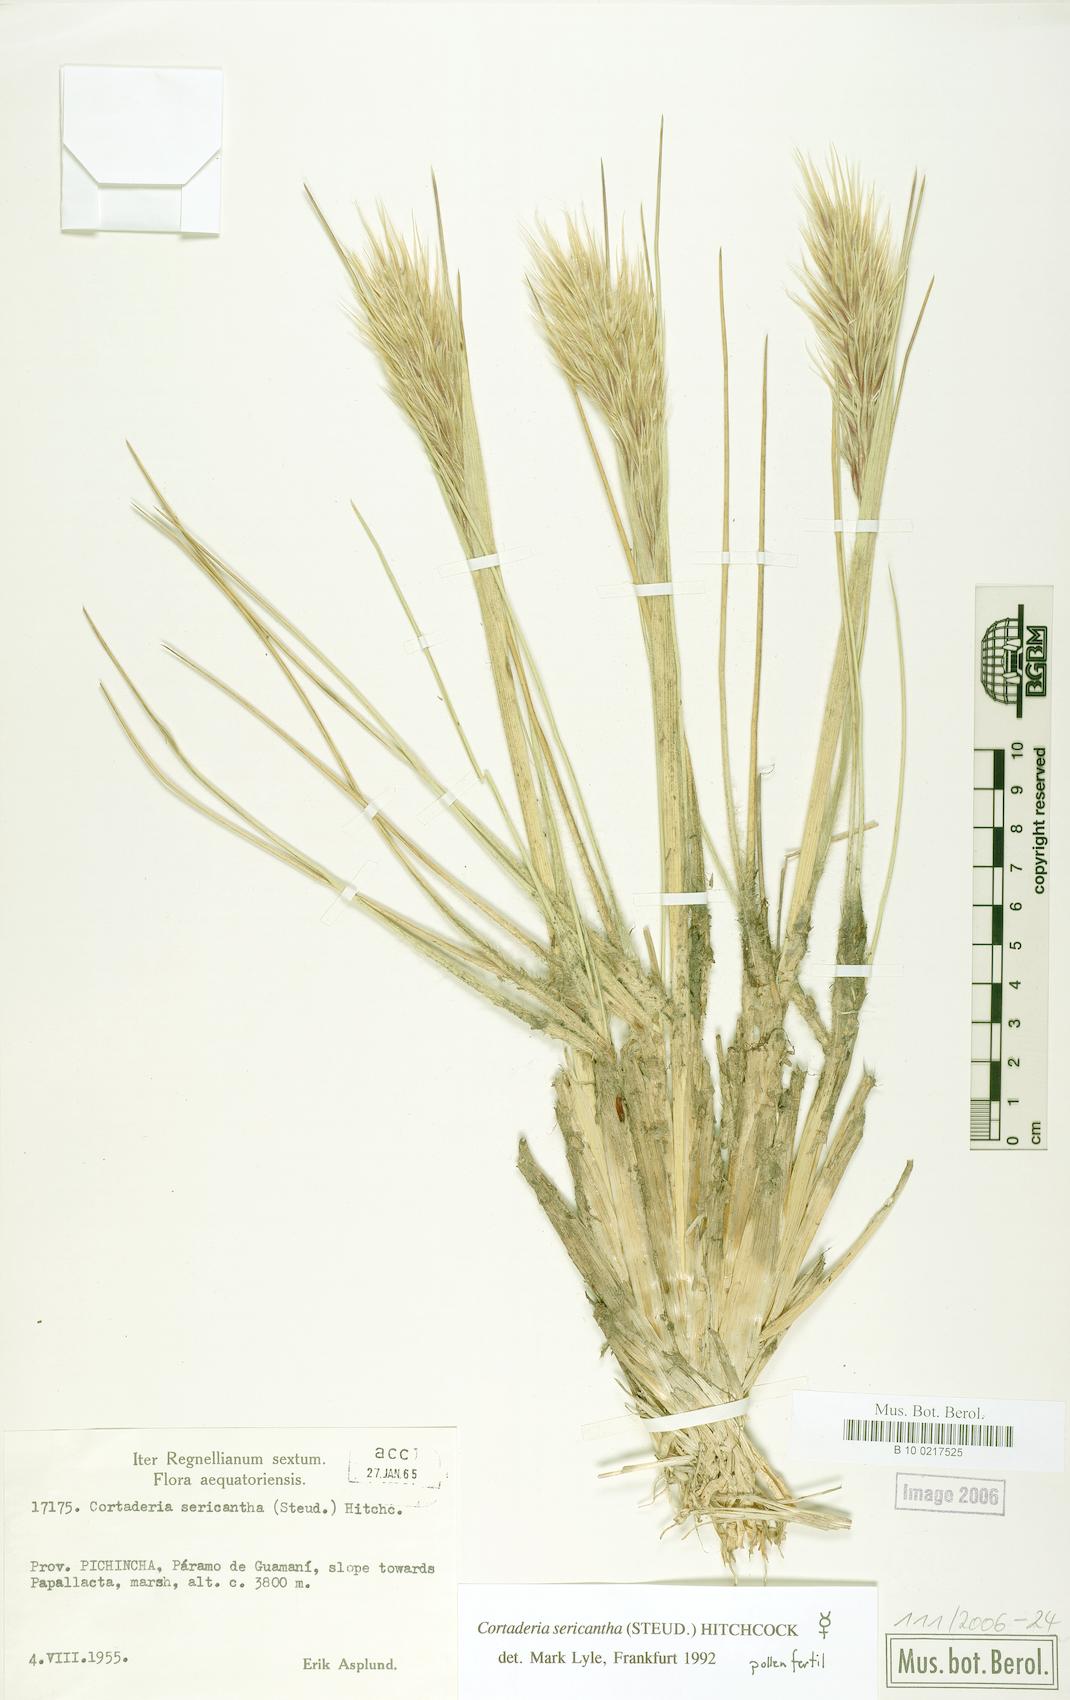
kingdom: Plantae
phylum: Tracheophyta
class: Liliopsida
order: Poales
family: Poaceae
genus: Cortaderia
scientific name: Cortaderia sericantha
